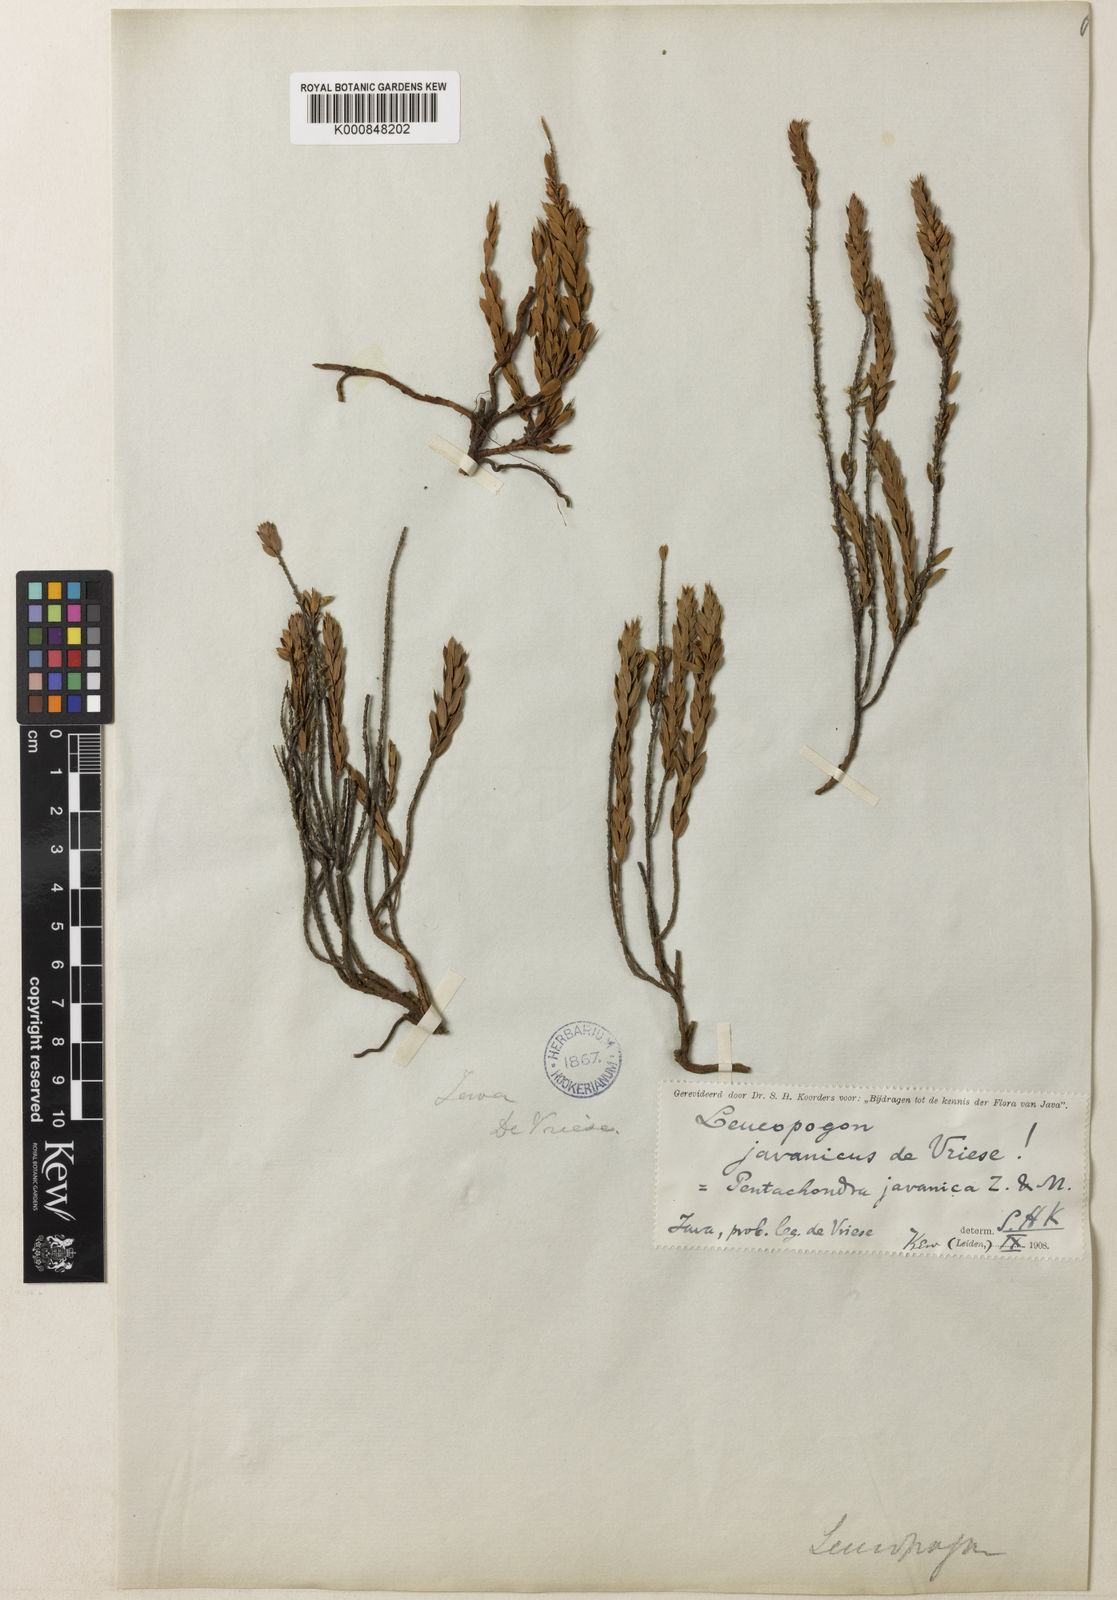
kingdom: Plantae
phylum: Tracheophyta
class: Magnoliopsida
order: Ericales
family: Ericaceae
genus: Styphelia
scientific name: Styphelia
